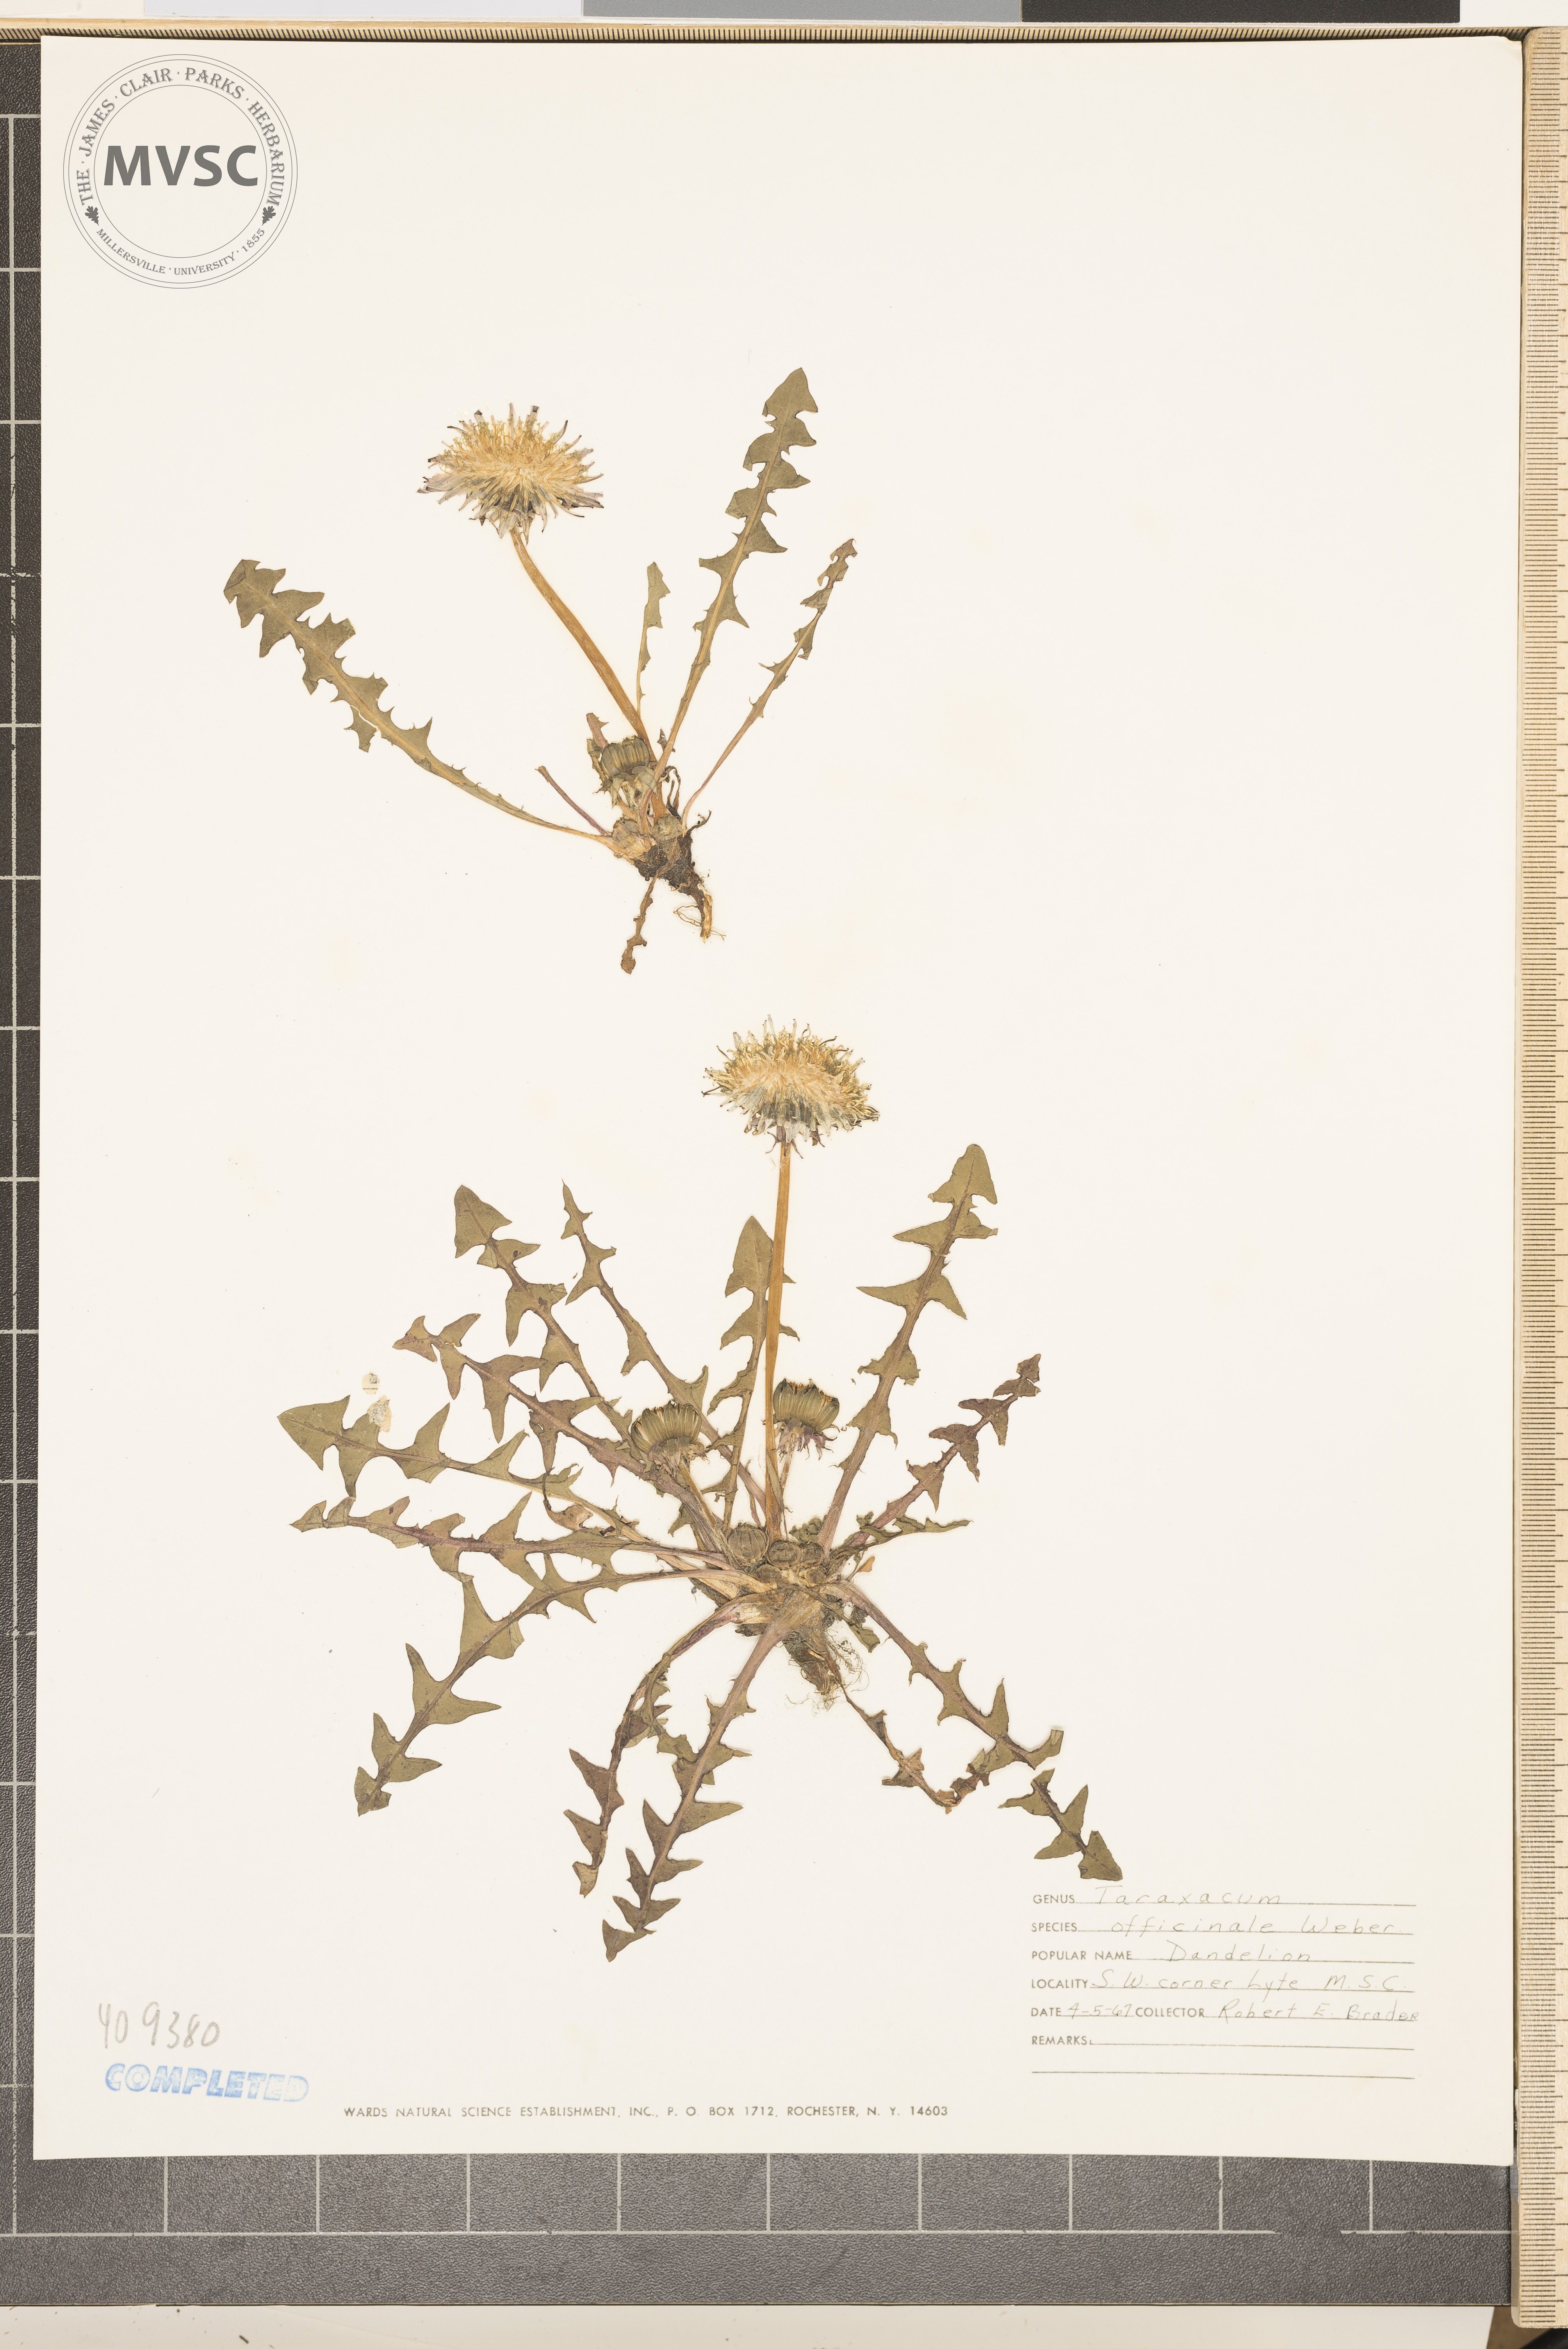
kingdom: Plantae
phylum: Tracheophyta
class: Magnoliopsida
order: Asterales
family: Asteraceae
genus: Taraxacum
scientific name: Taraxacum officinale
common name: Common dandelion
